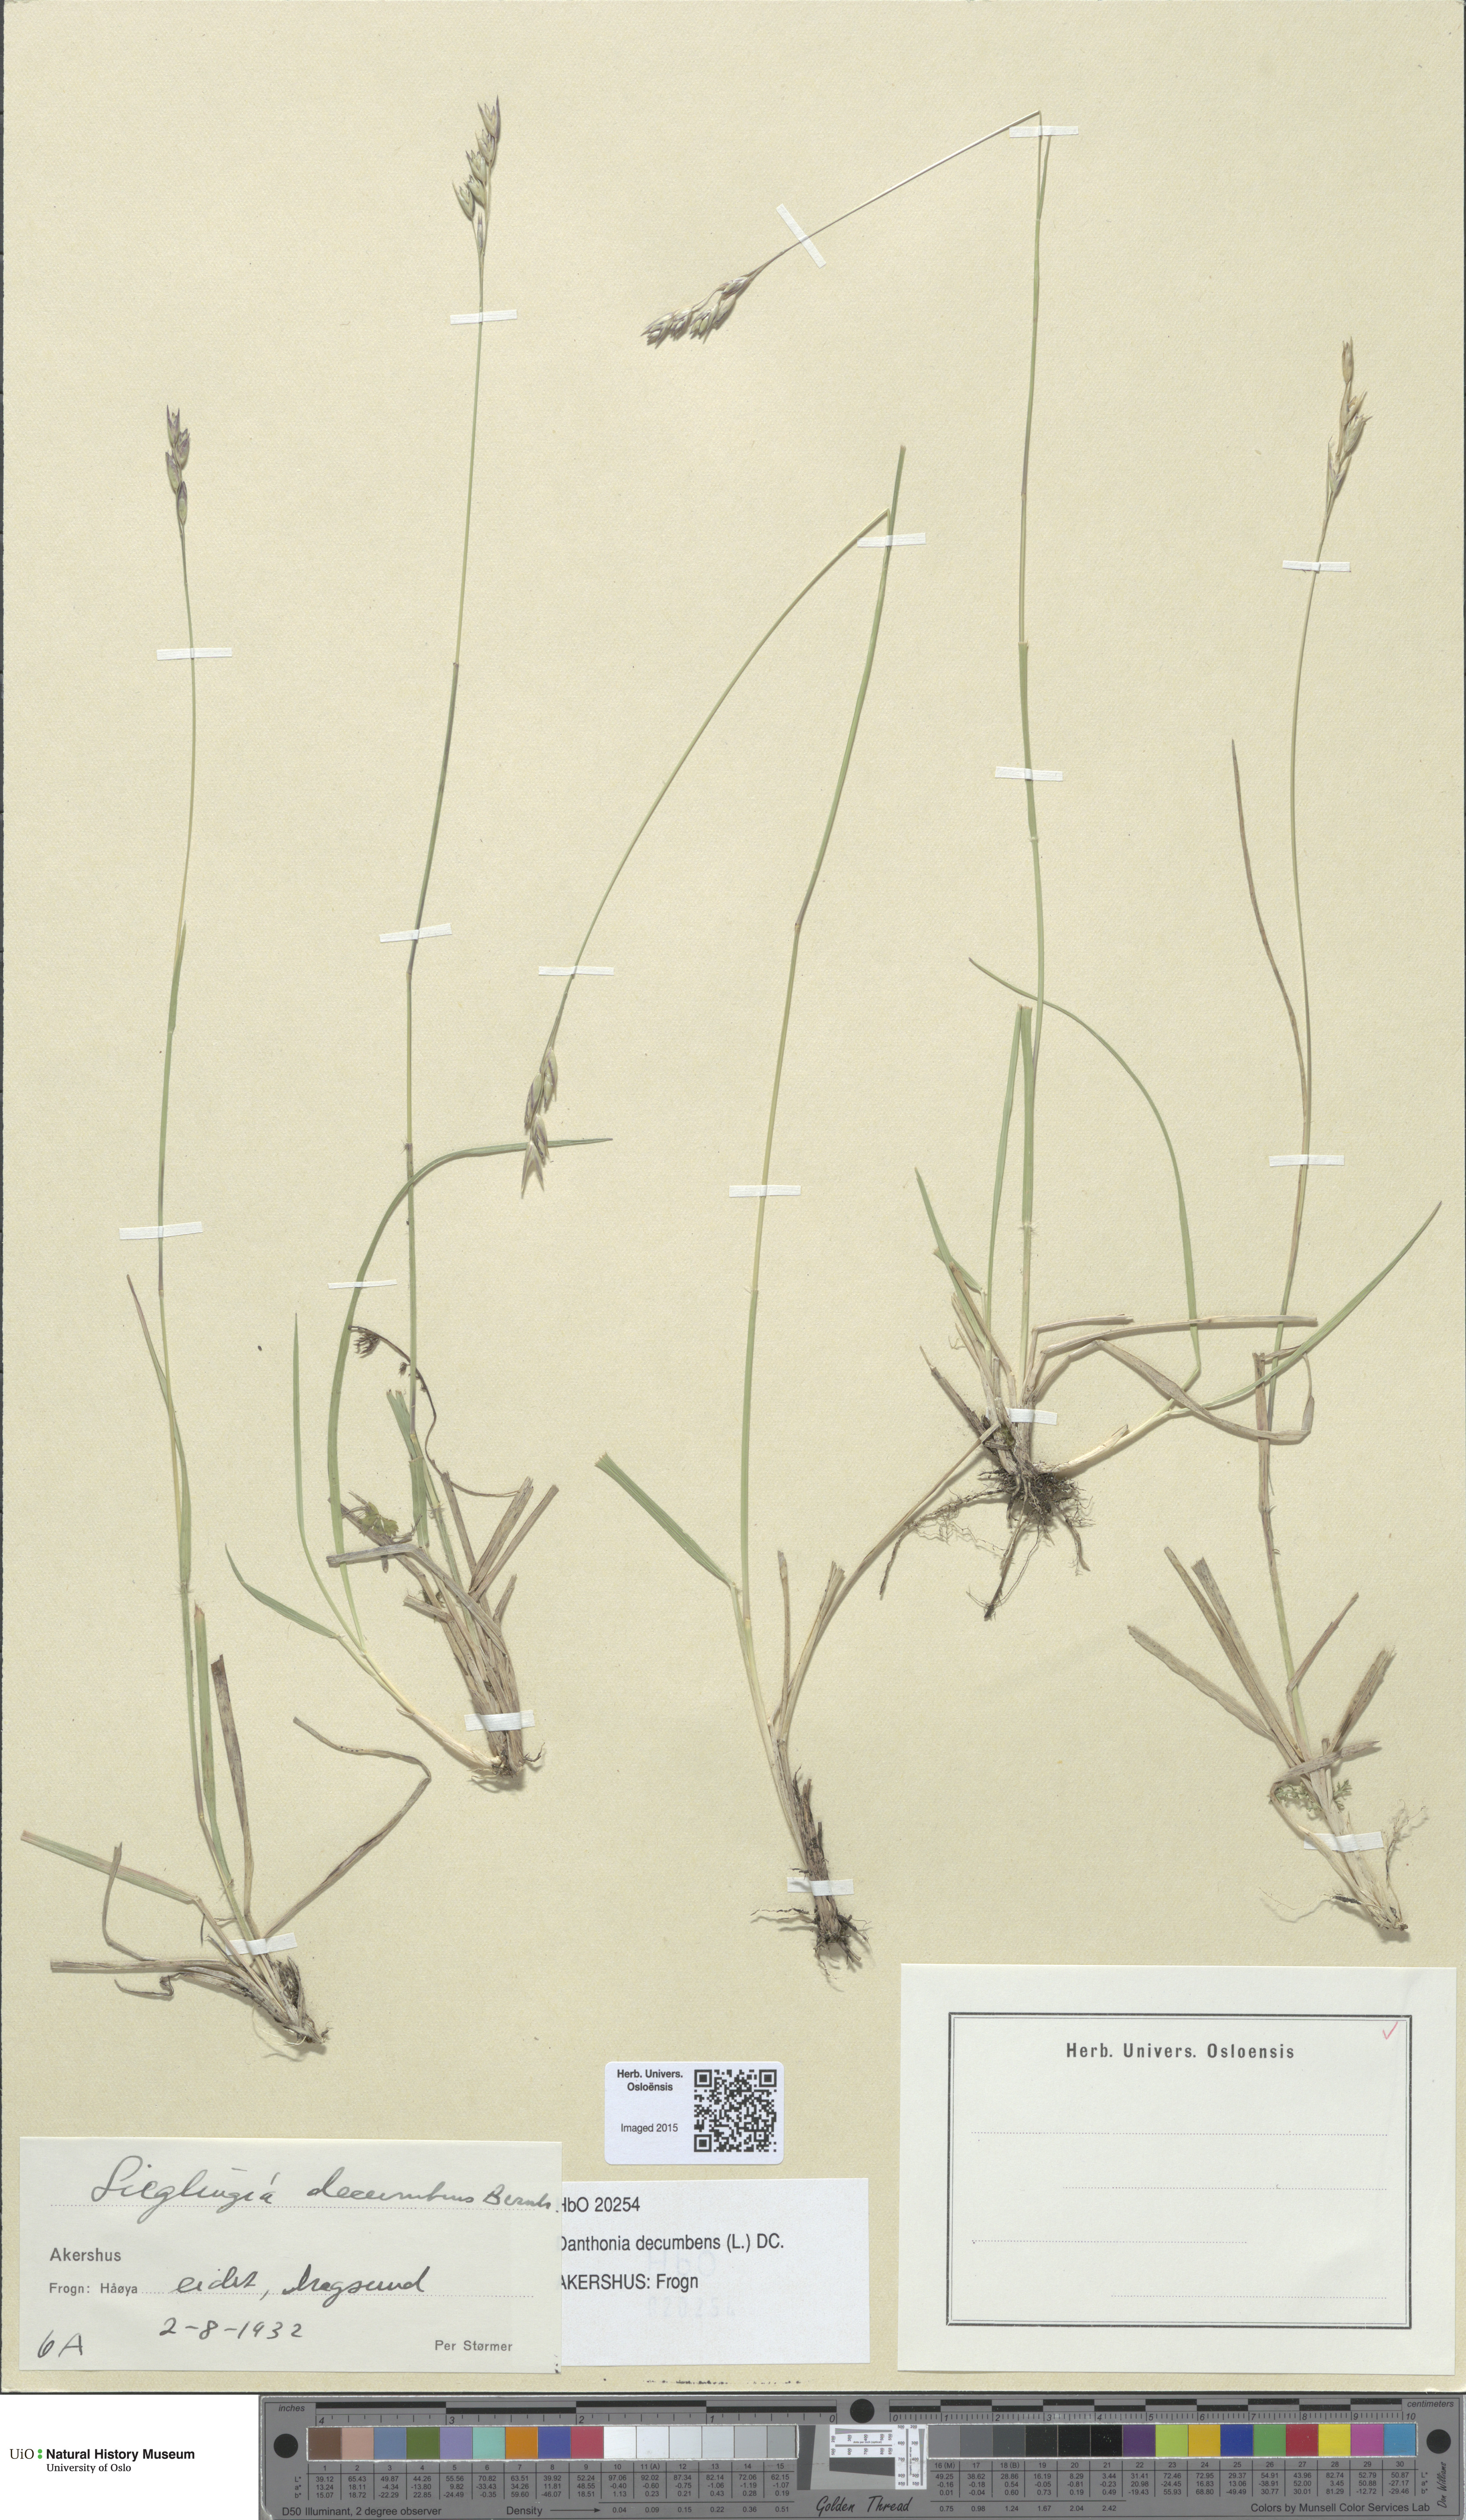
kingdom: Plantae
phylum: Tracheophyta
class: Liliopsida
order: Poales
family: Poaceae
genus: Danthonia
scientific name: Danthonia decumbens
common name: Common heathgrass
